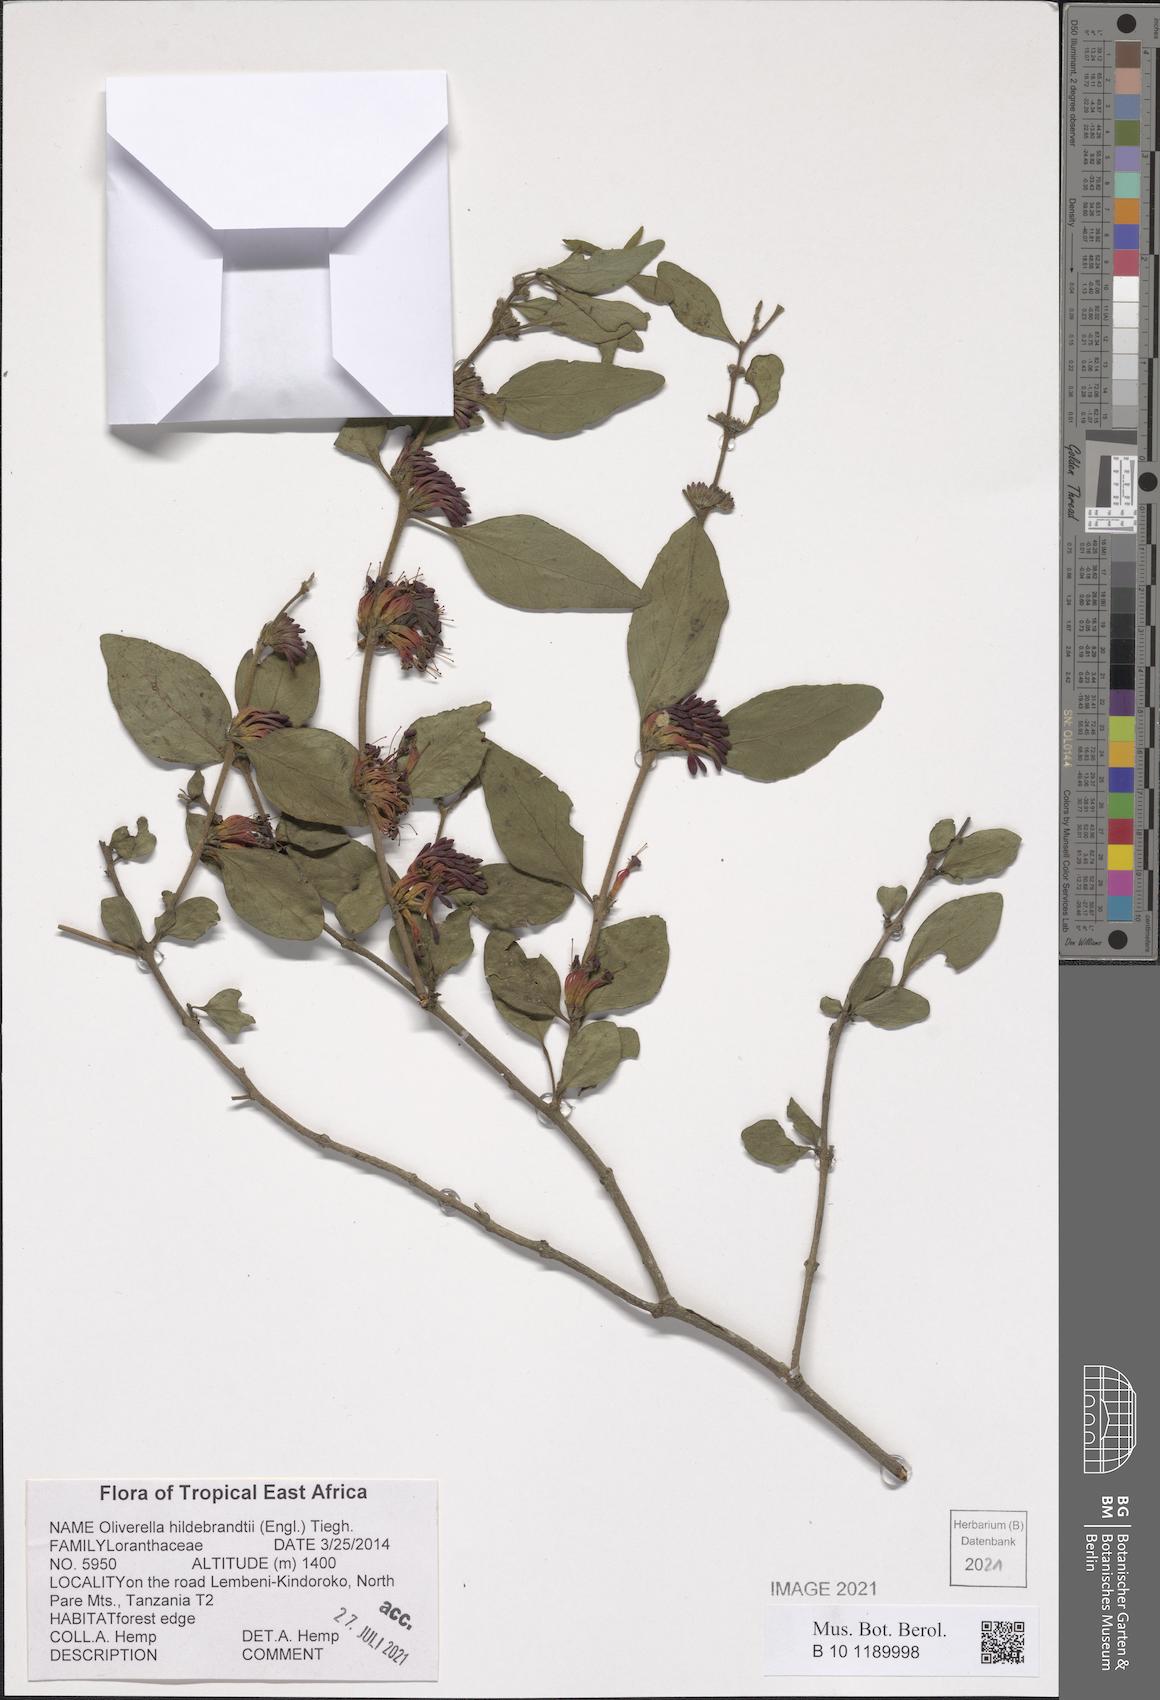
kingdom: Plantae
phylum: Tracheophyta
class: Magnoliopsida
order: Santalales
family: Loranthaceae
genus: Oliverella
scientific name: Oliverella hildebrandtii
